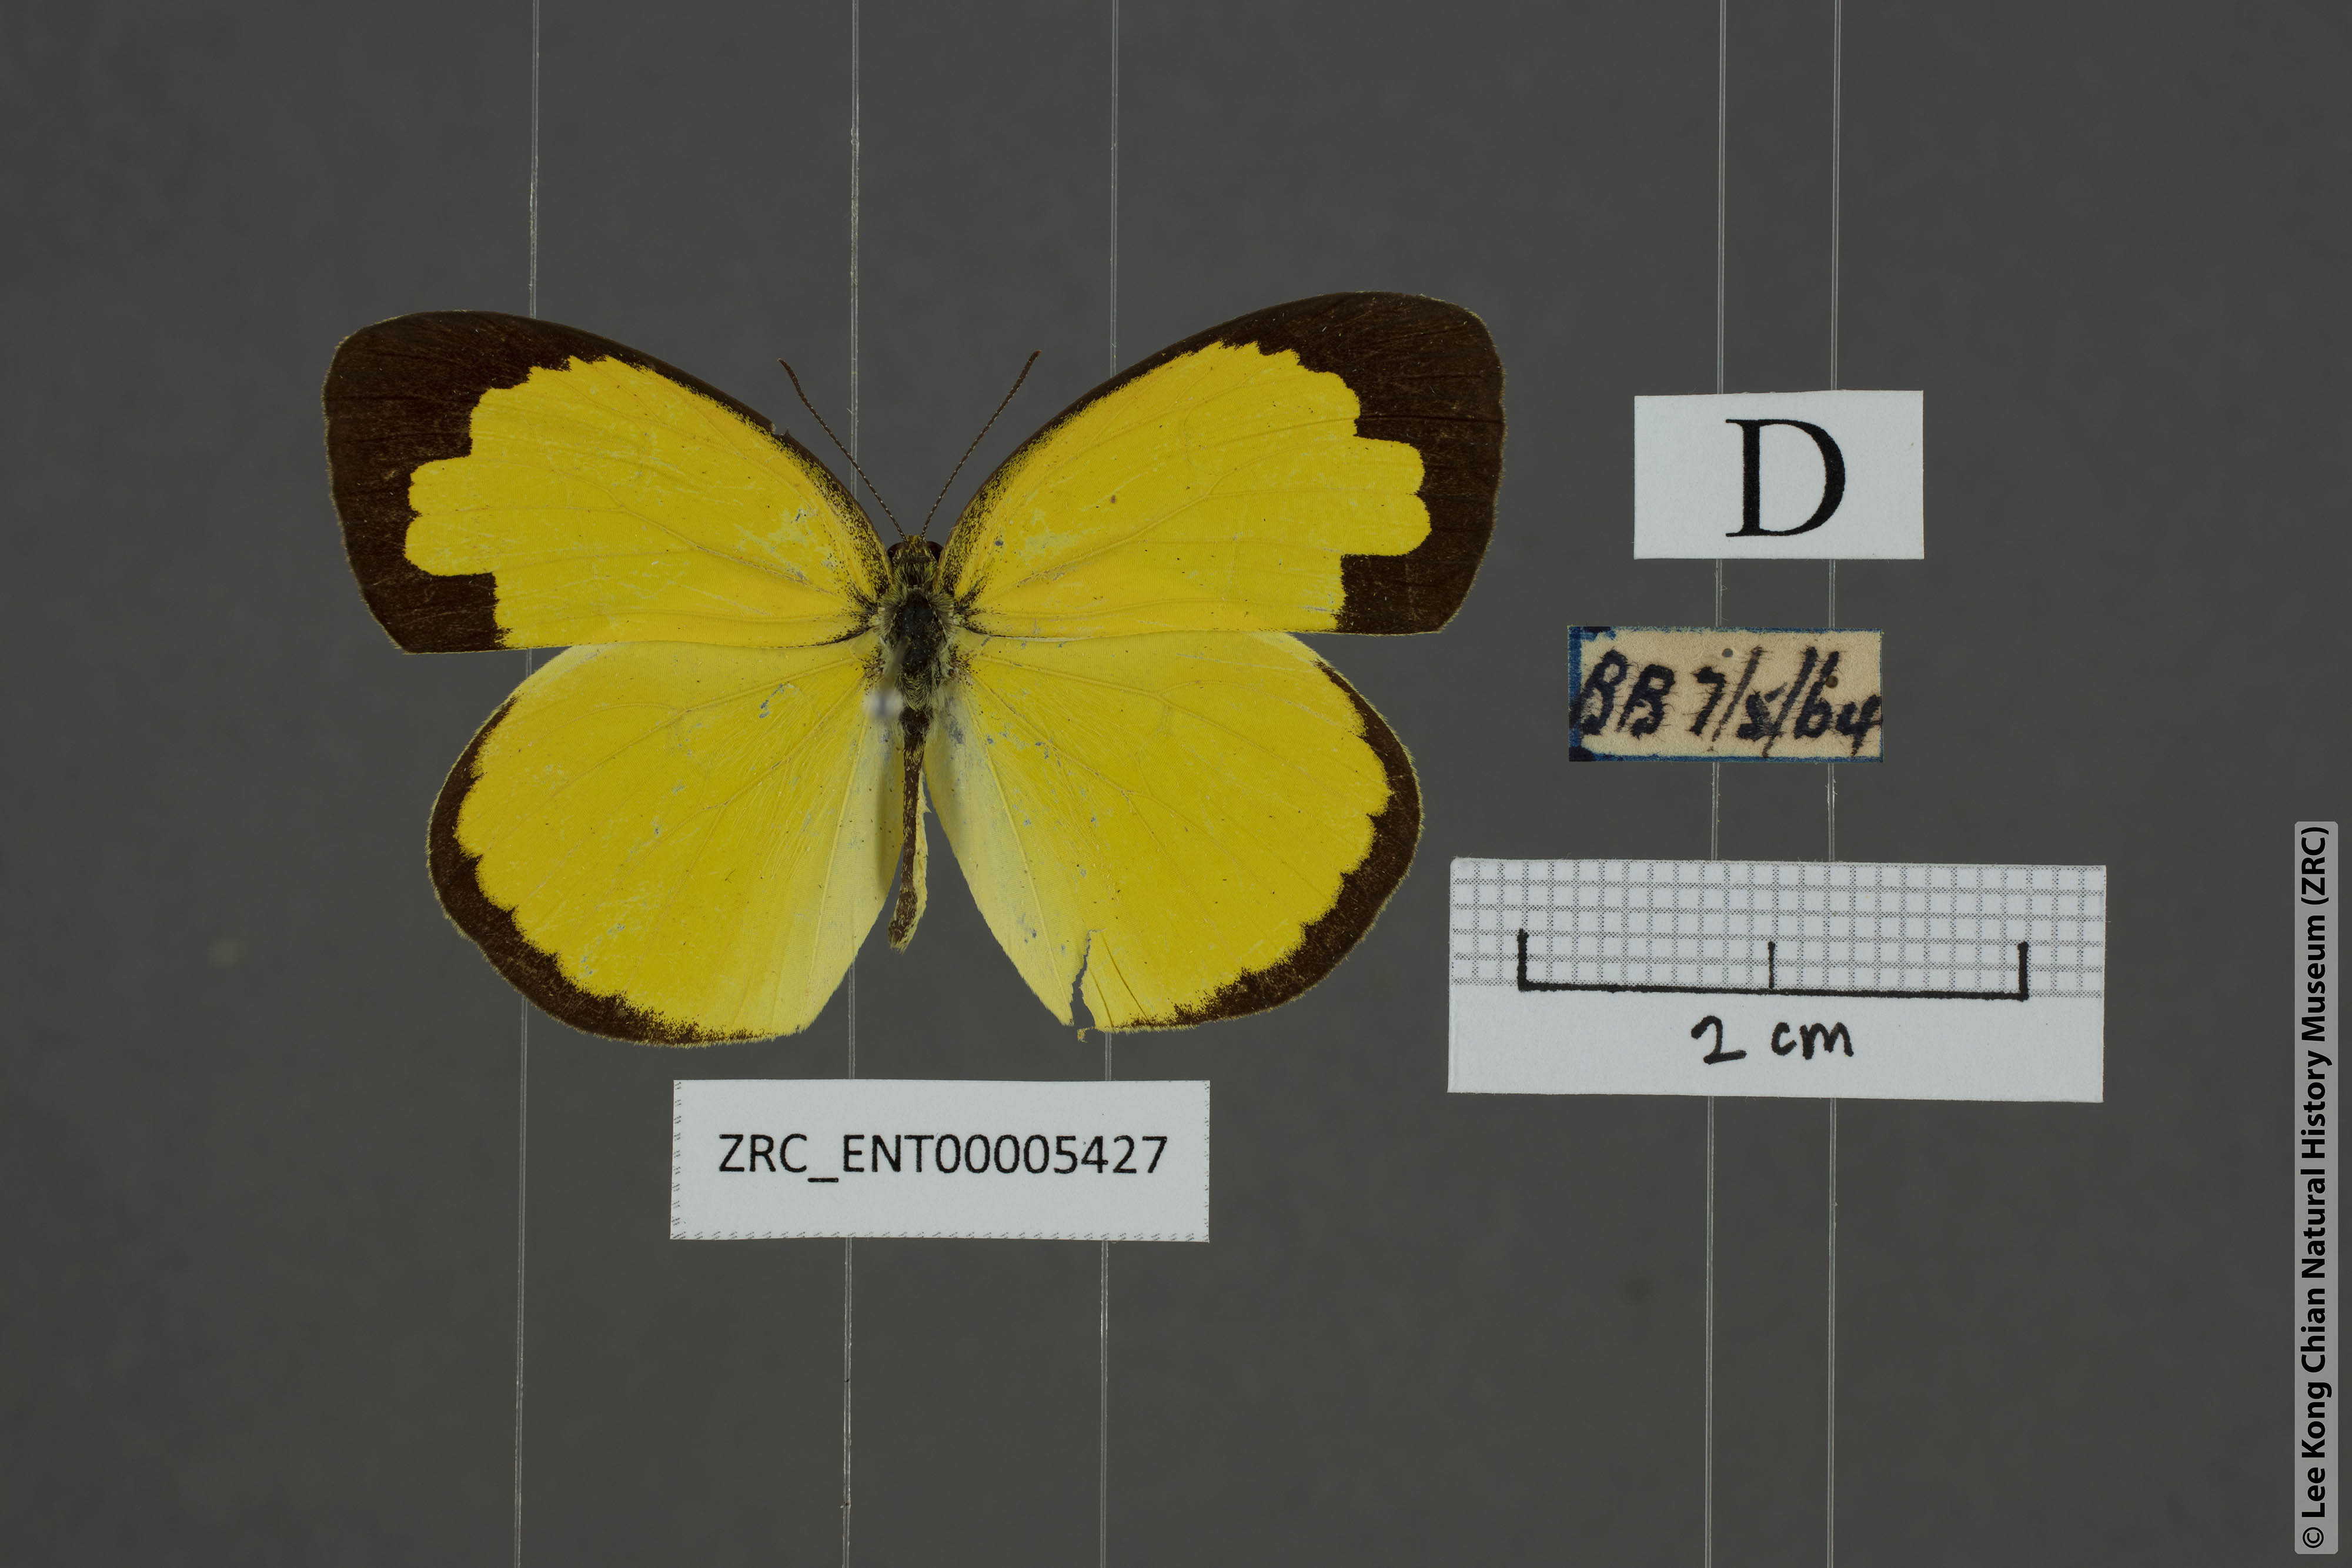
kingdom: Animalia
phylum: Arthropoda
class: Insecta
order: Lepidoptera
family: Pieridae
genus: Eurema
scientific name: Eurema blanda
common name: Three-spot grass yellow
